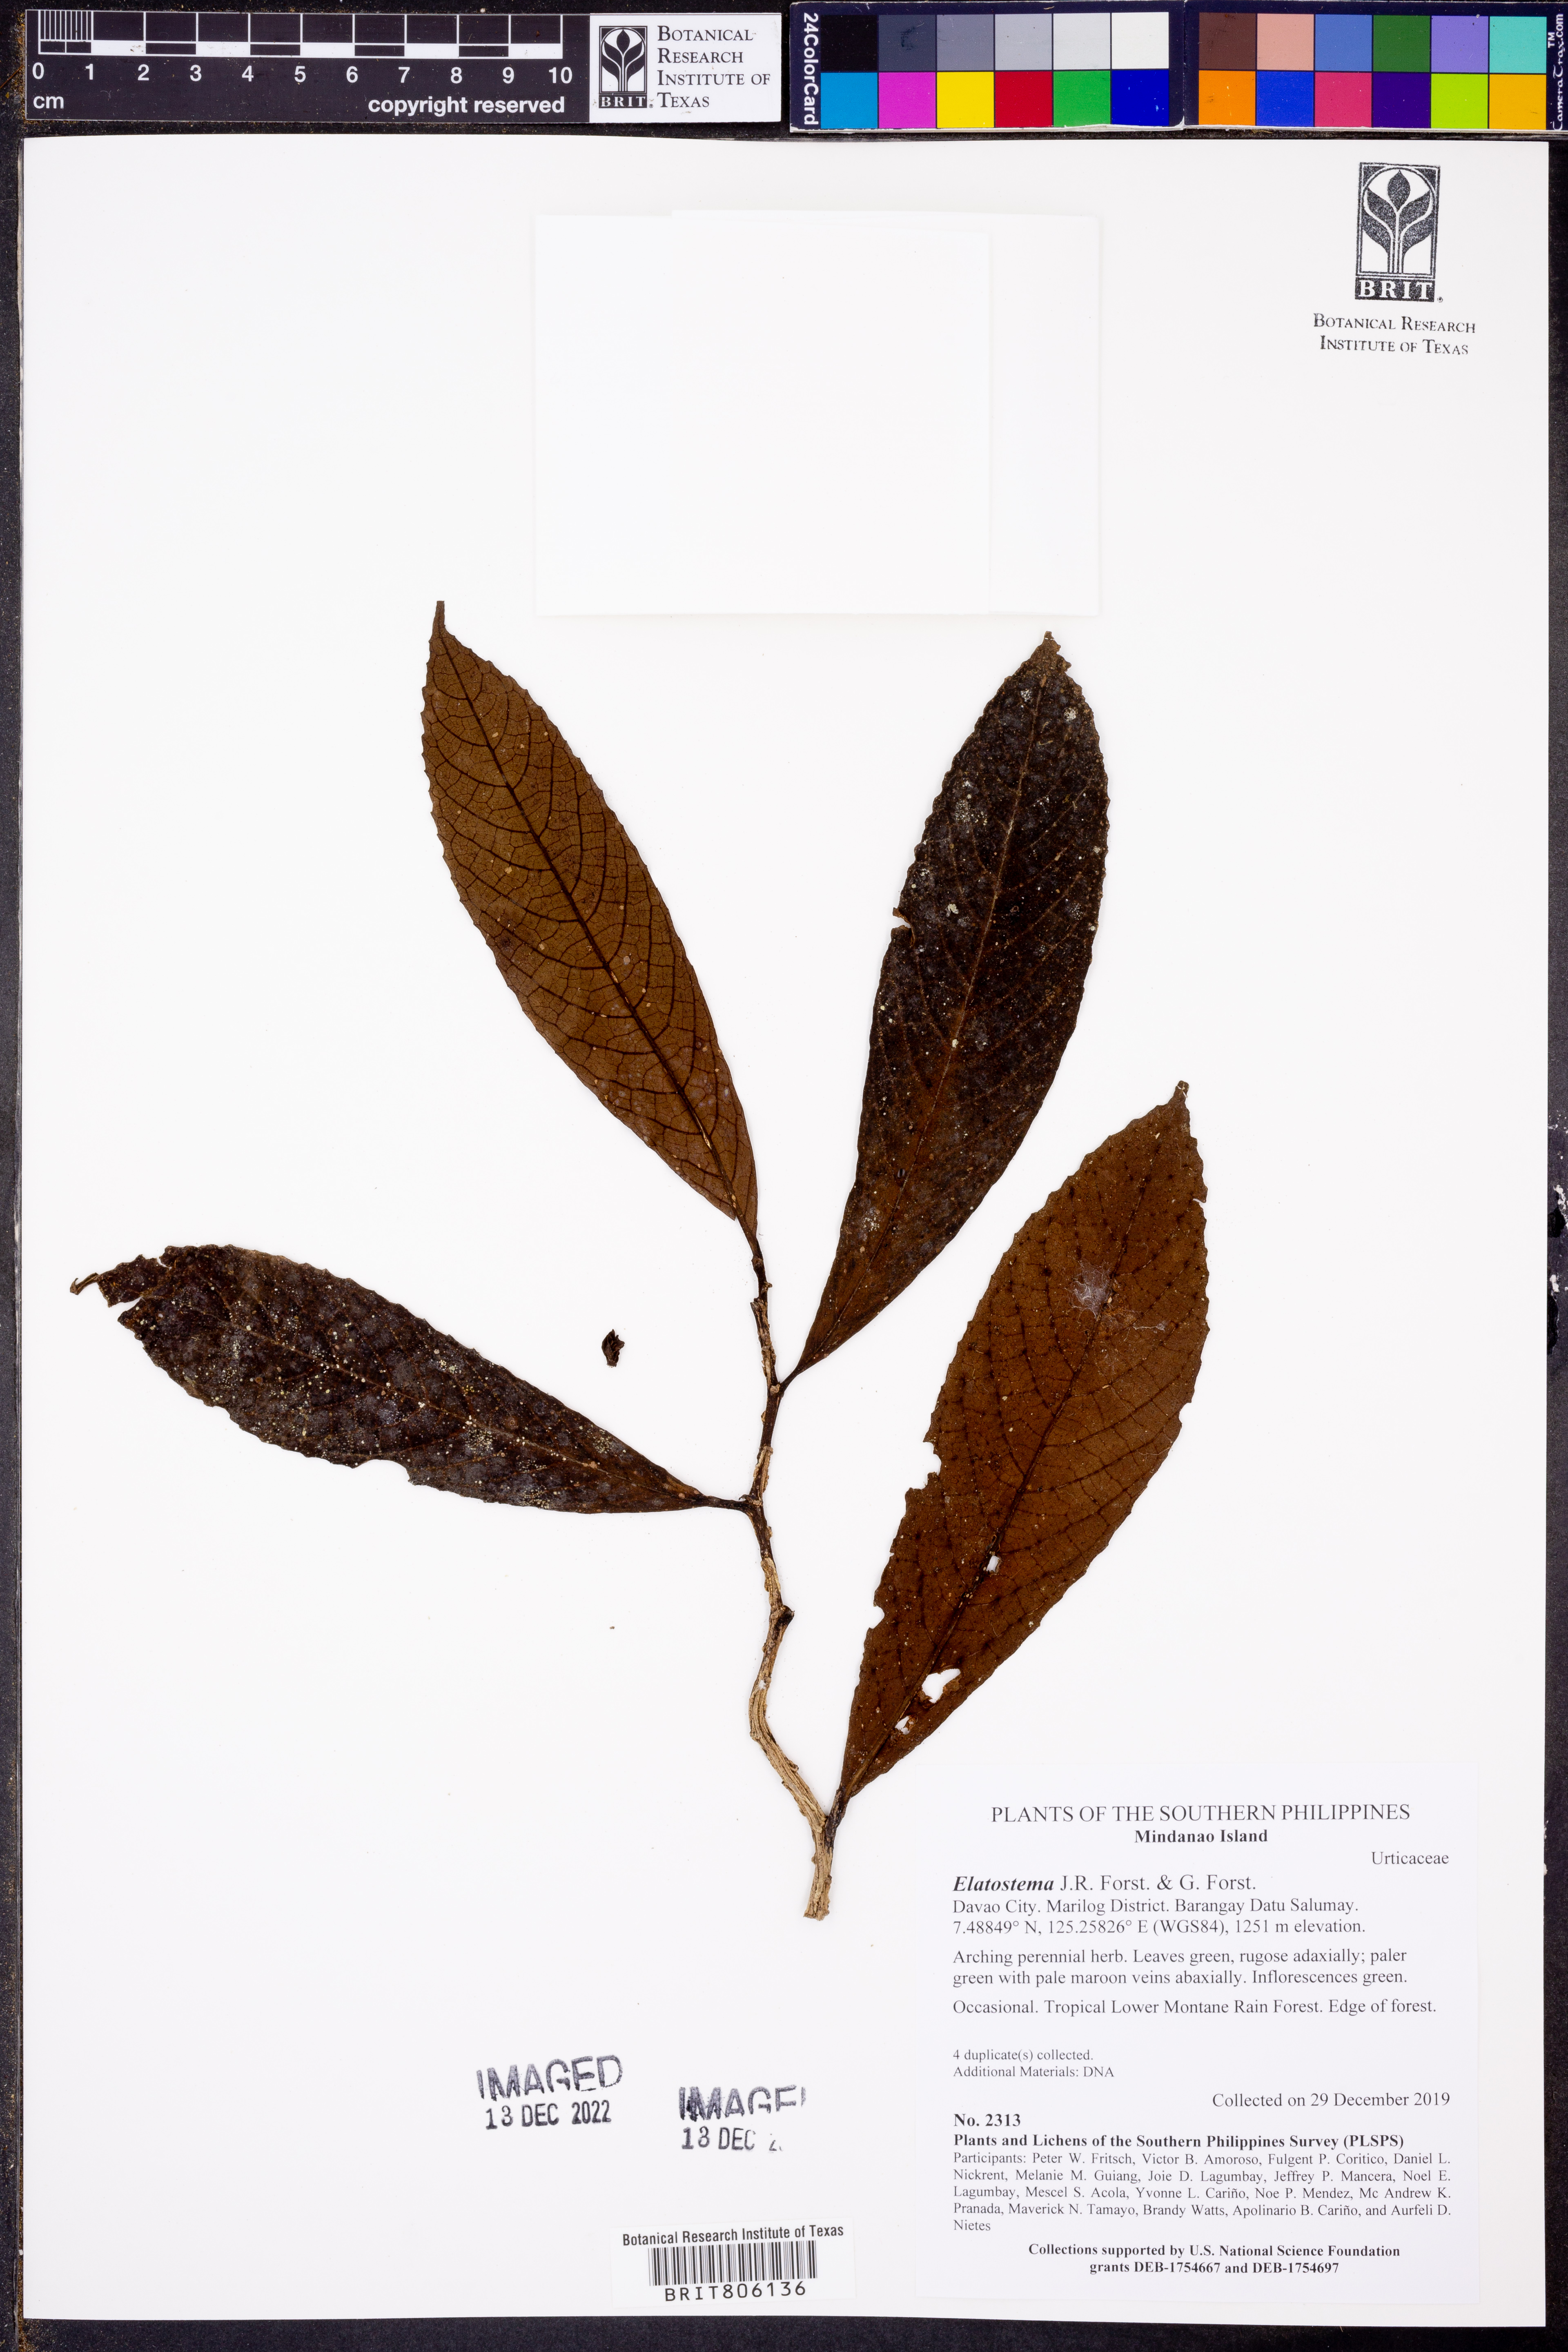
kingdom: Plantae
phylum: Tracheophyta
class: Magnoliopsida
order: Rosales
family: Urticaceae
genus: Elatostema
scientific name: Elatostema
